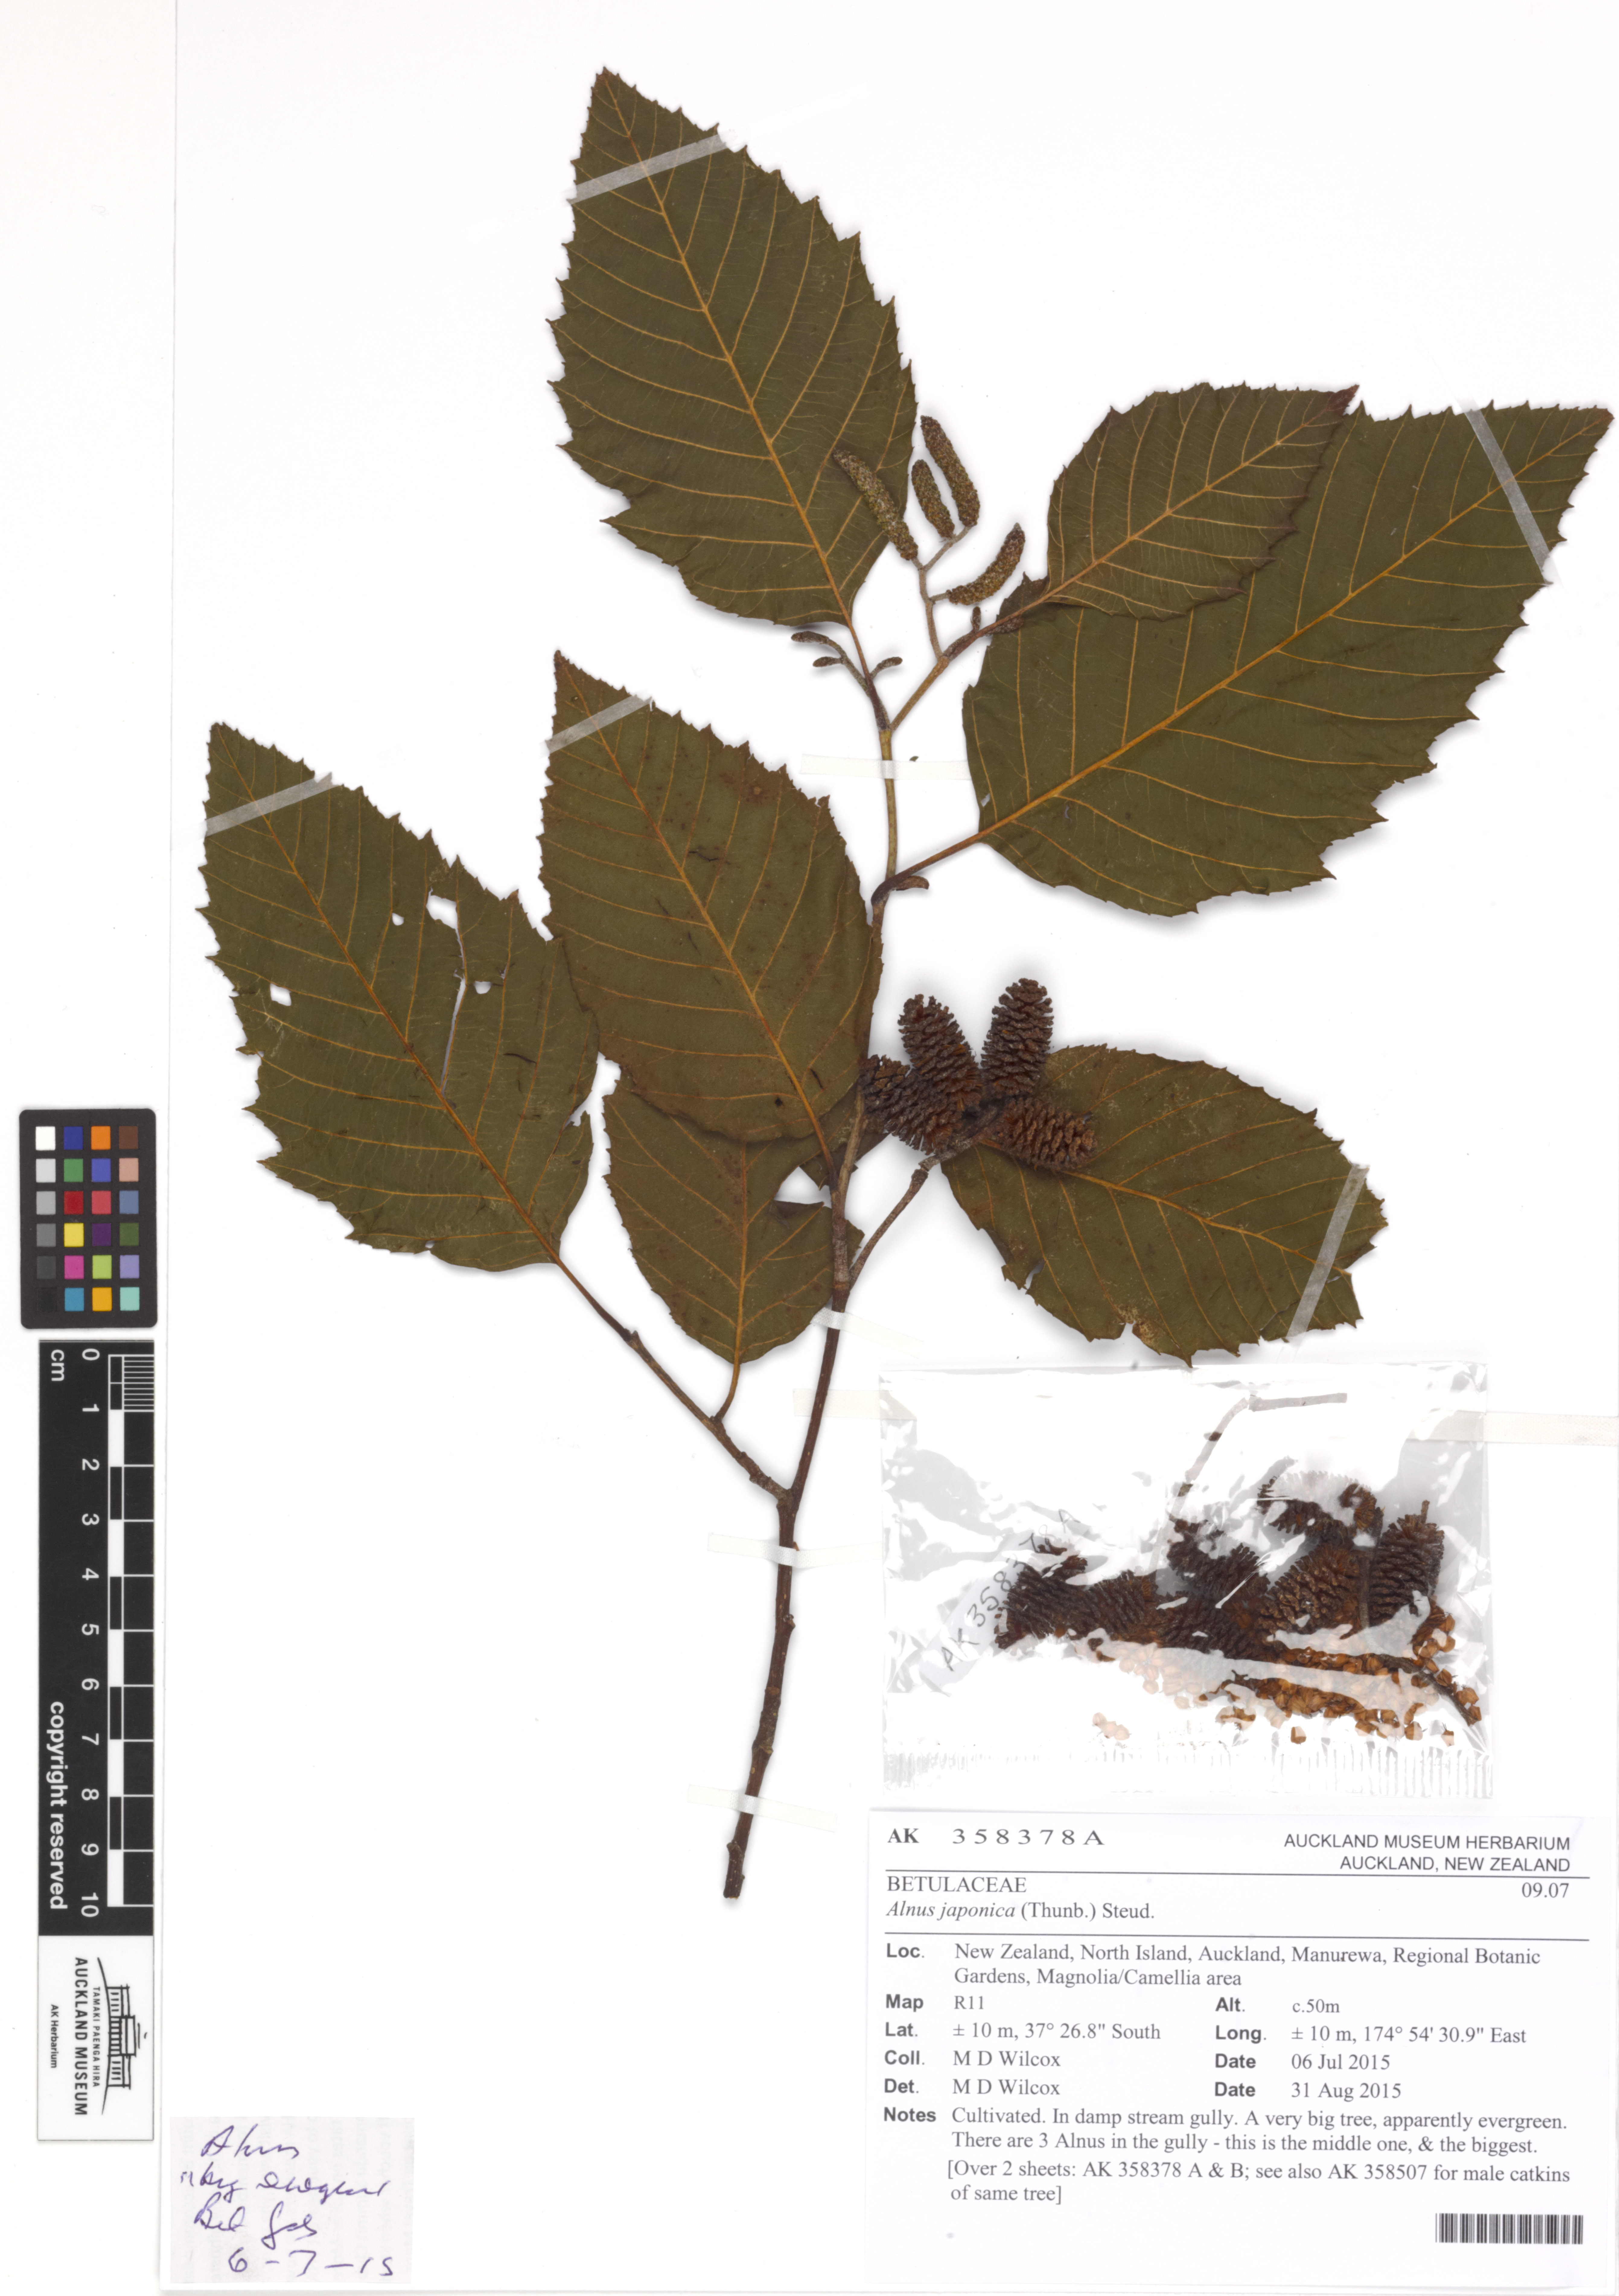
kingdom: Plantae
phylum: Tracheophyta
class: Magnoliopsida
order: Fagales
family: Betulaceae
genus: Alnus
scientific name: Alnus japonica
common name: Japanese alder
